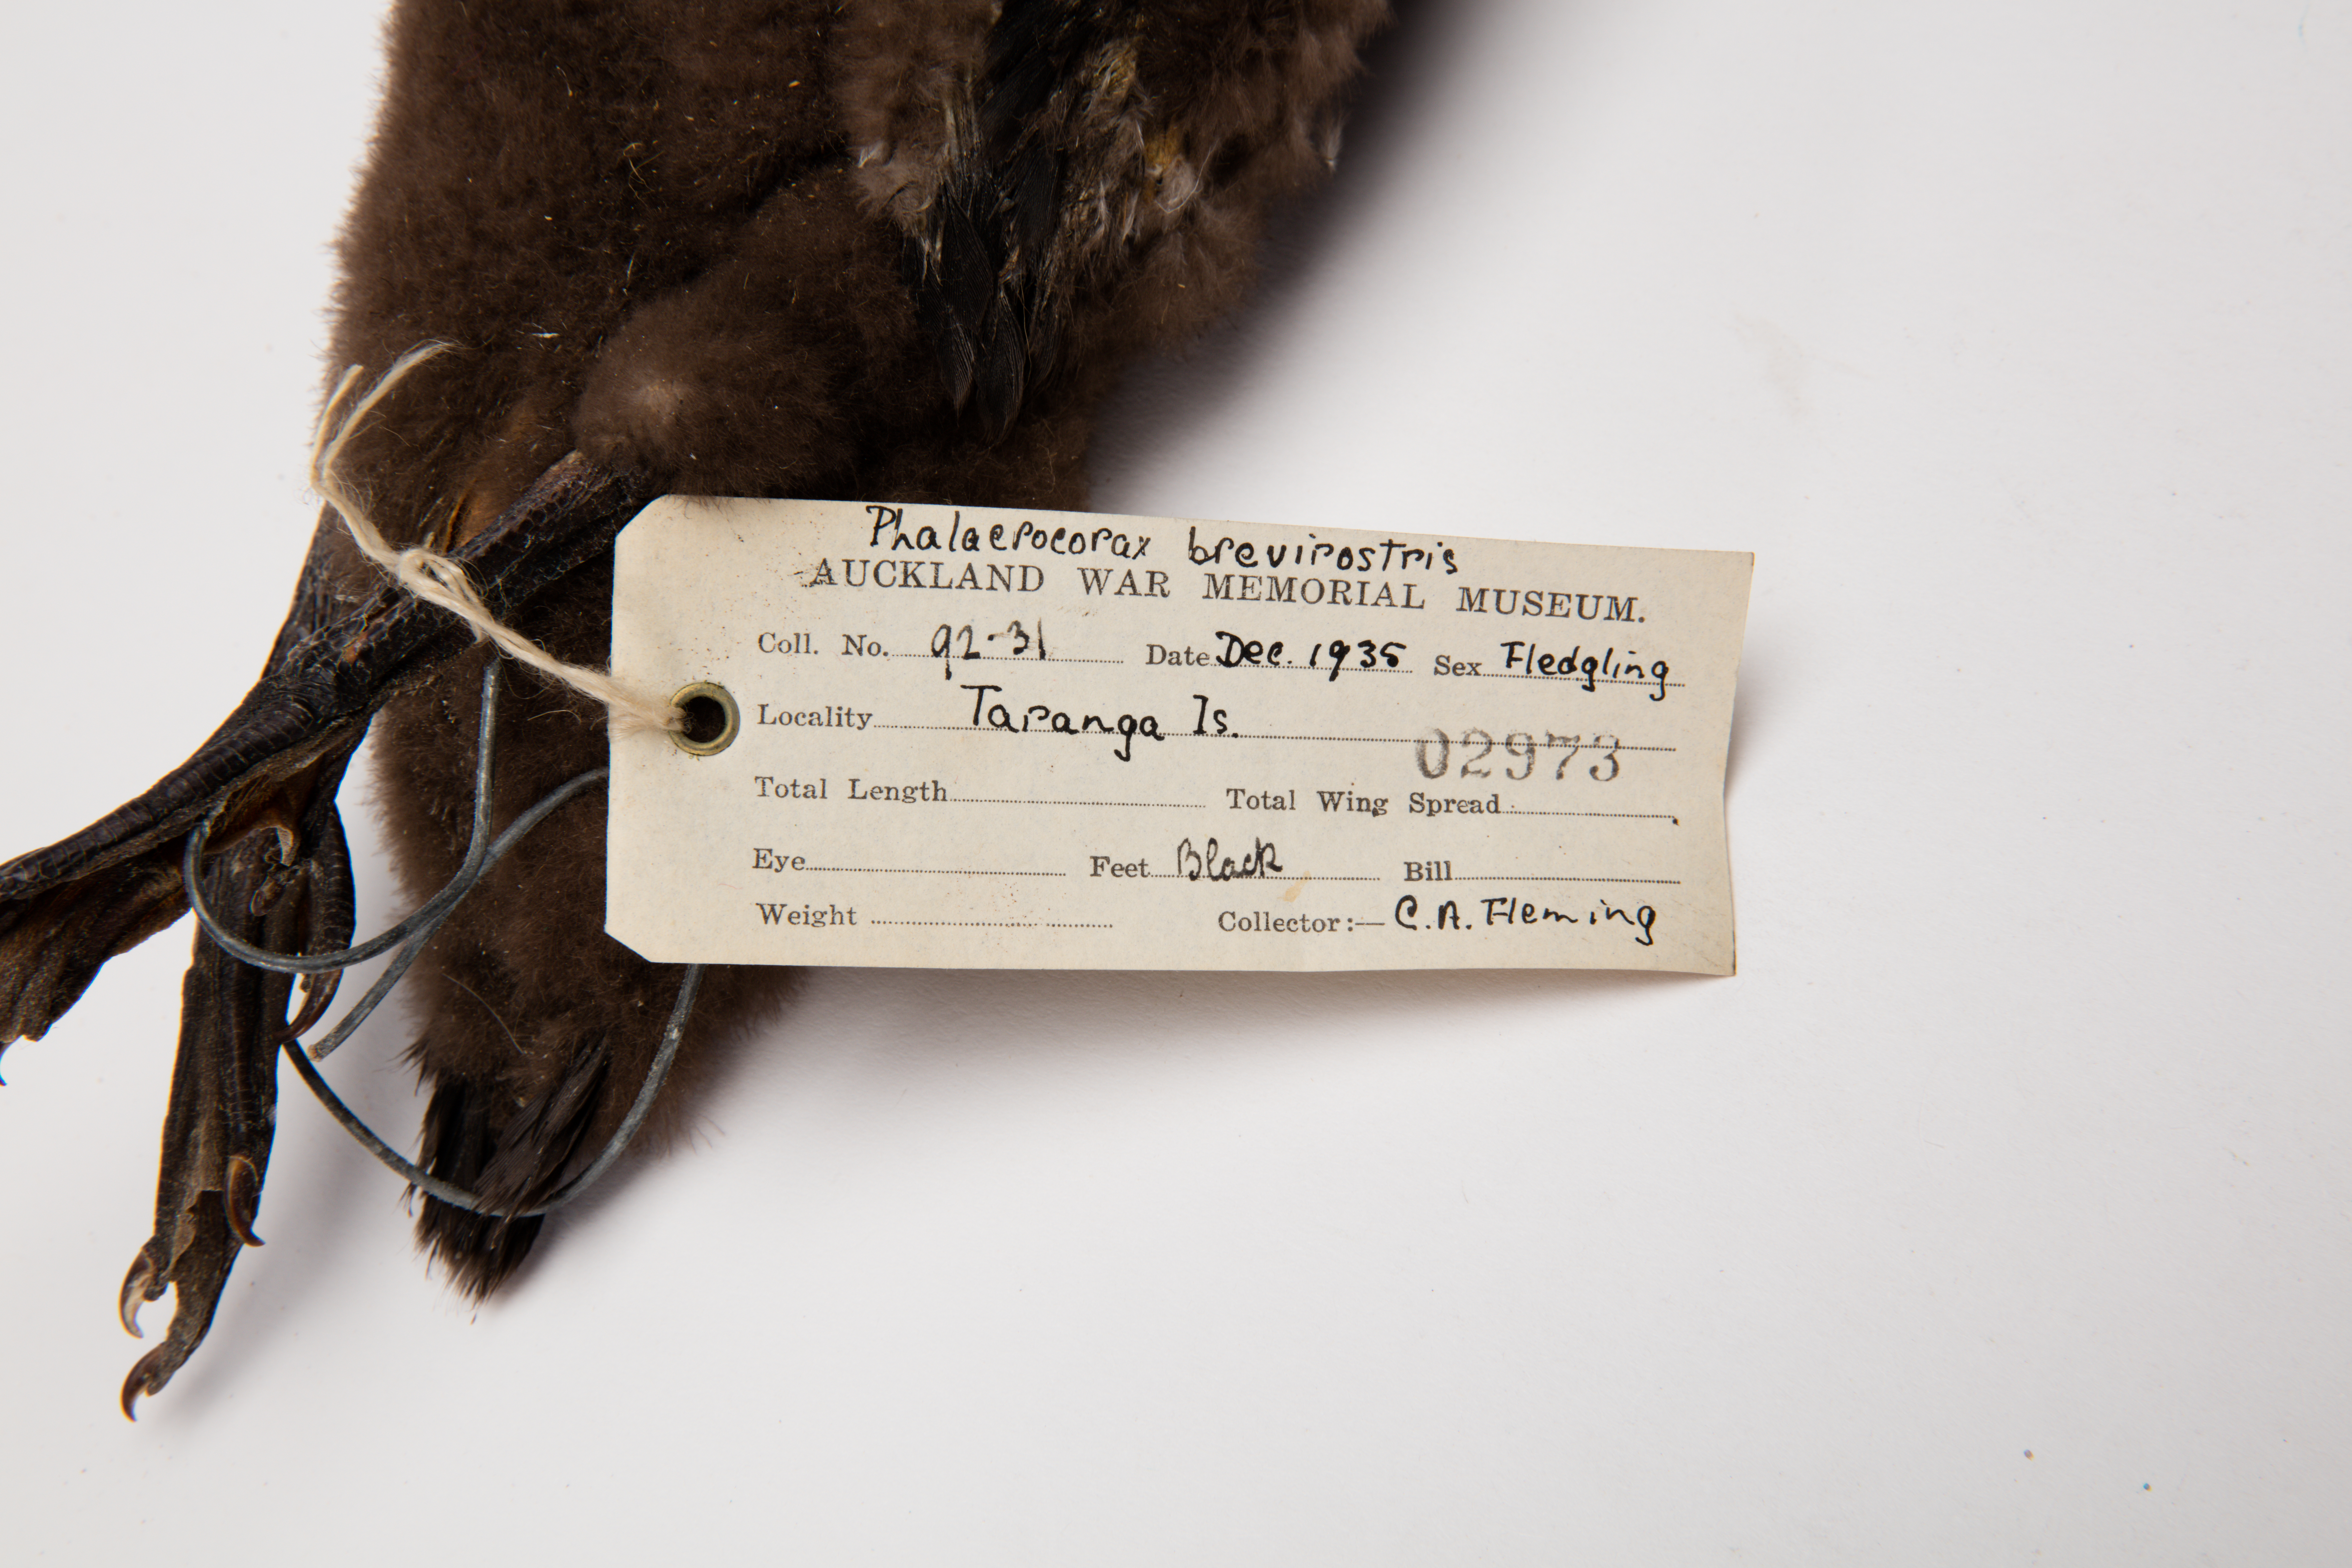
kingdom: Animalia
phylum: Chordata
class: Aves
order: Suliformes
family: Phalacrocoracidae
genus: Microcarbo
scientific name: Microcarbo melanoleucos
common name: Little pied cormorant
